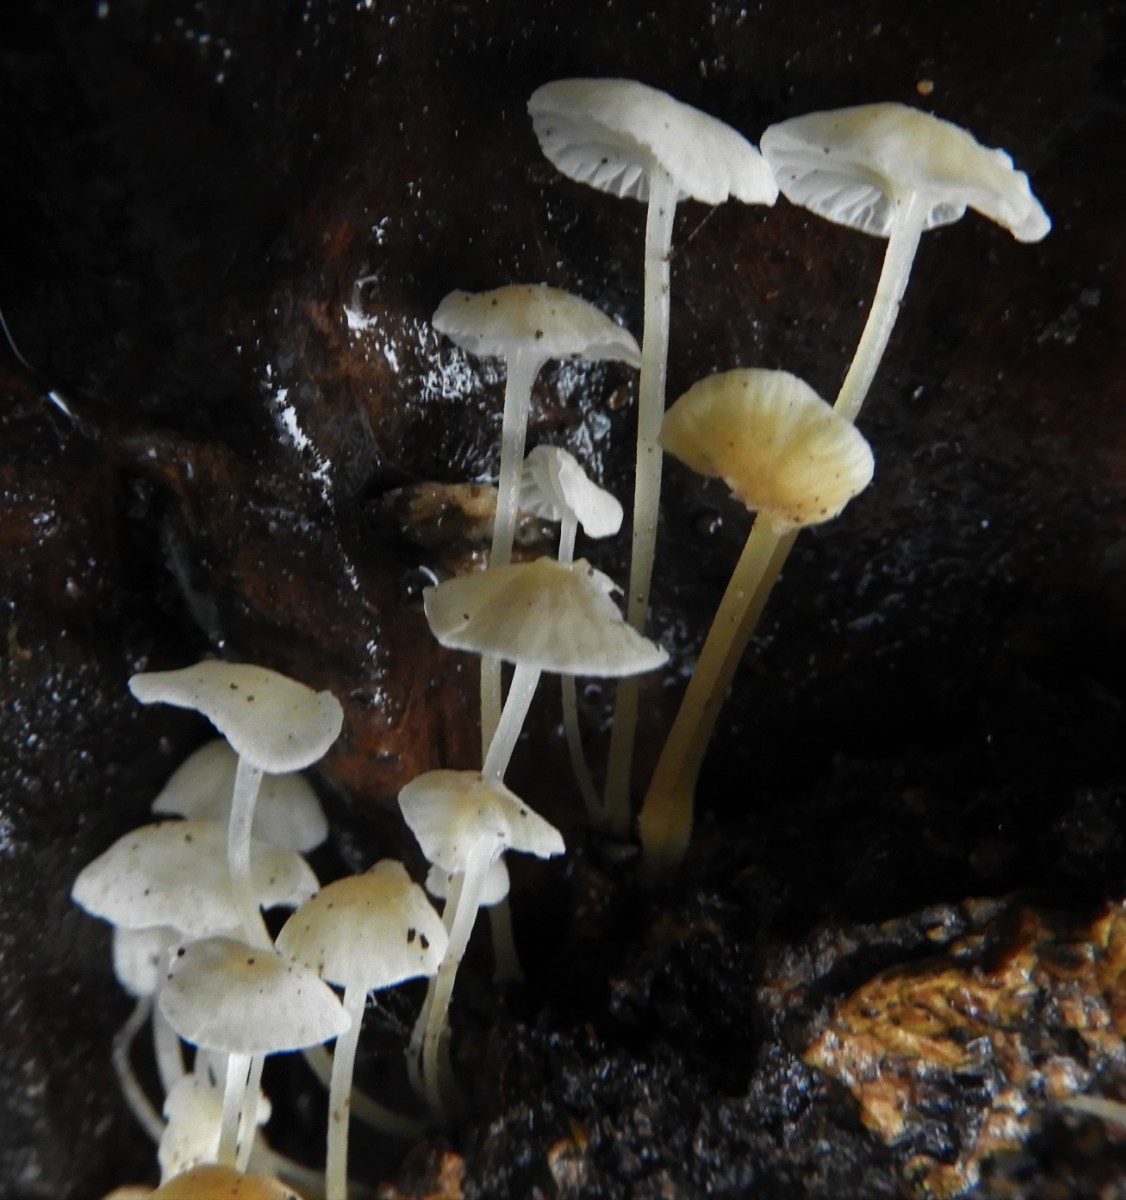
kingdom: Fungi
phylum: Basidiomycota
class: Agaricomycetes
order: Agaricales
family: Porotheleaceae
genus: Phloeomana
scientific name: Phloeomana speirea
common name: kvist-huesvamp
